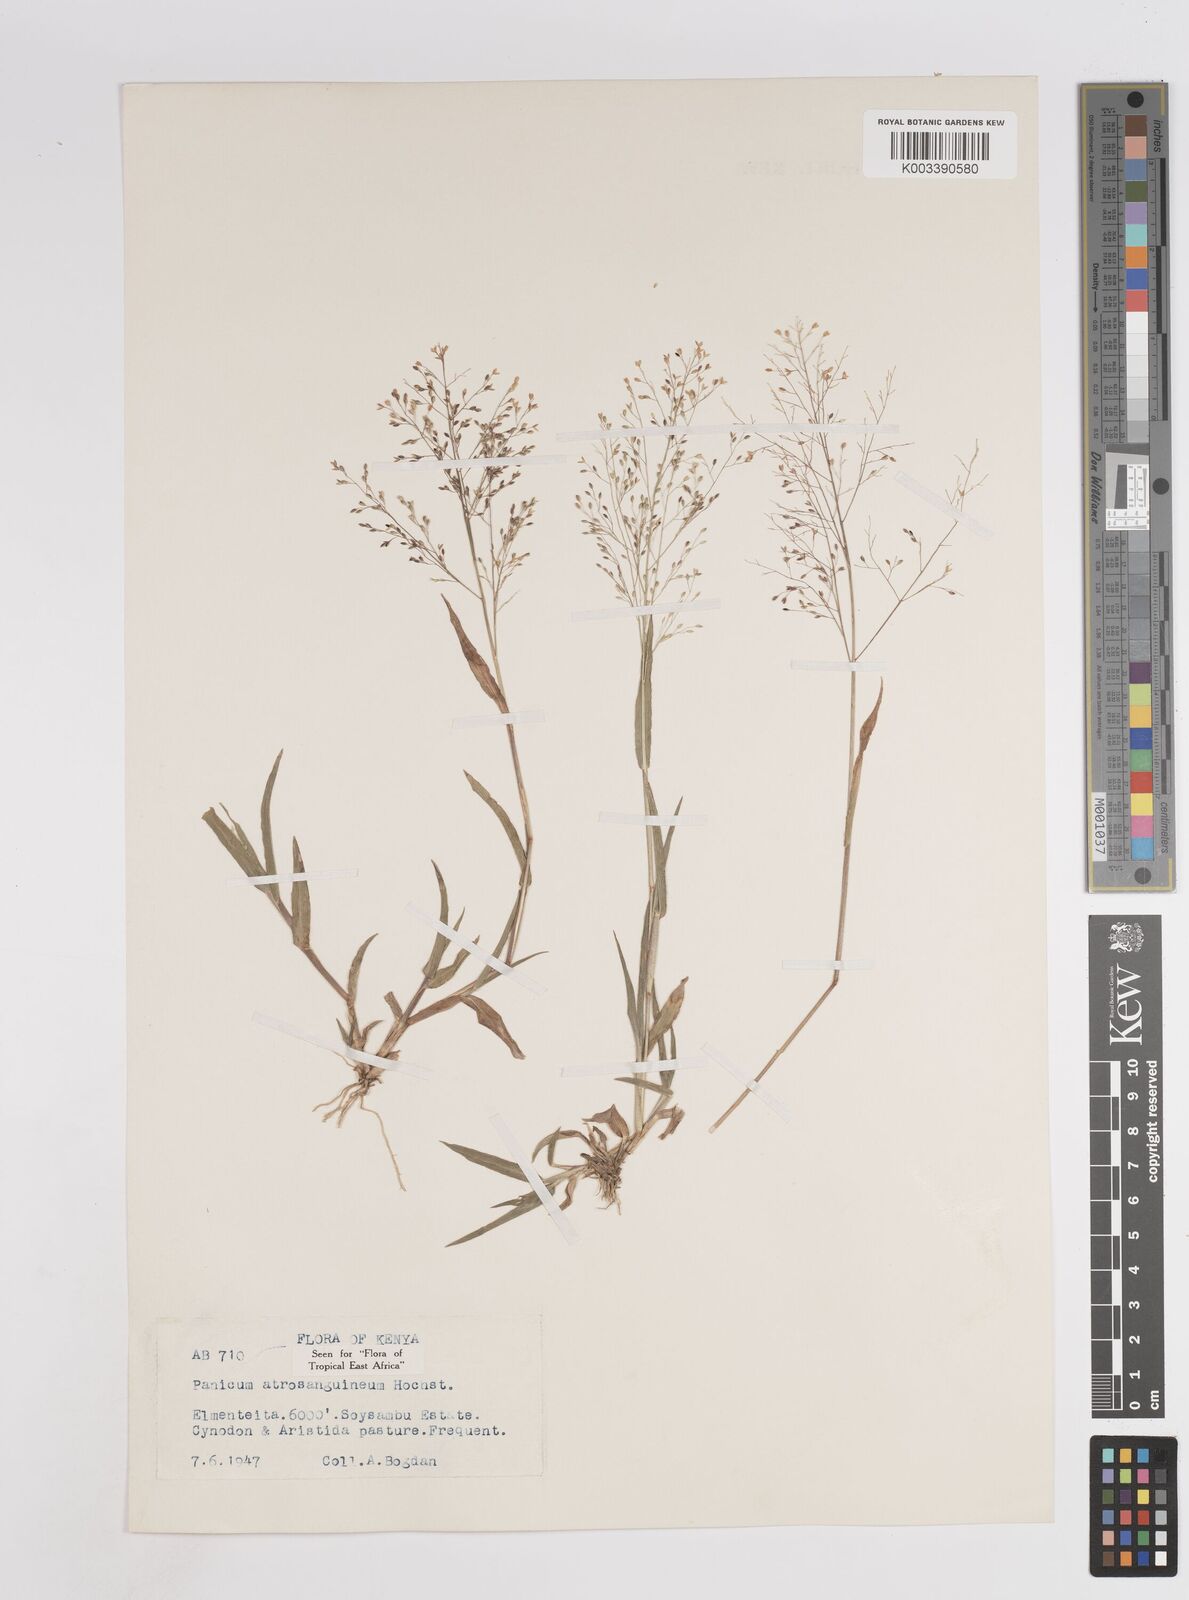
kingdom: Plantae
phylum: Tracheophyta
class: Liliopsida
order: Poales
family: Poaceae
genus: Panicum
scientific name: Panicum atrosanguineum
